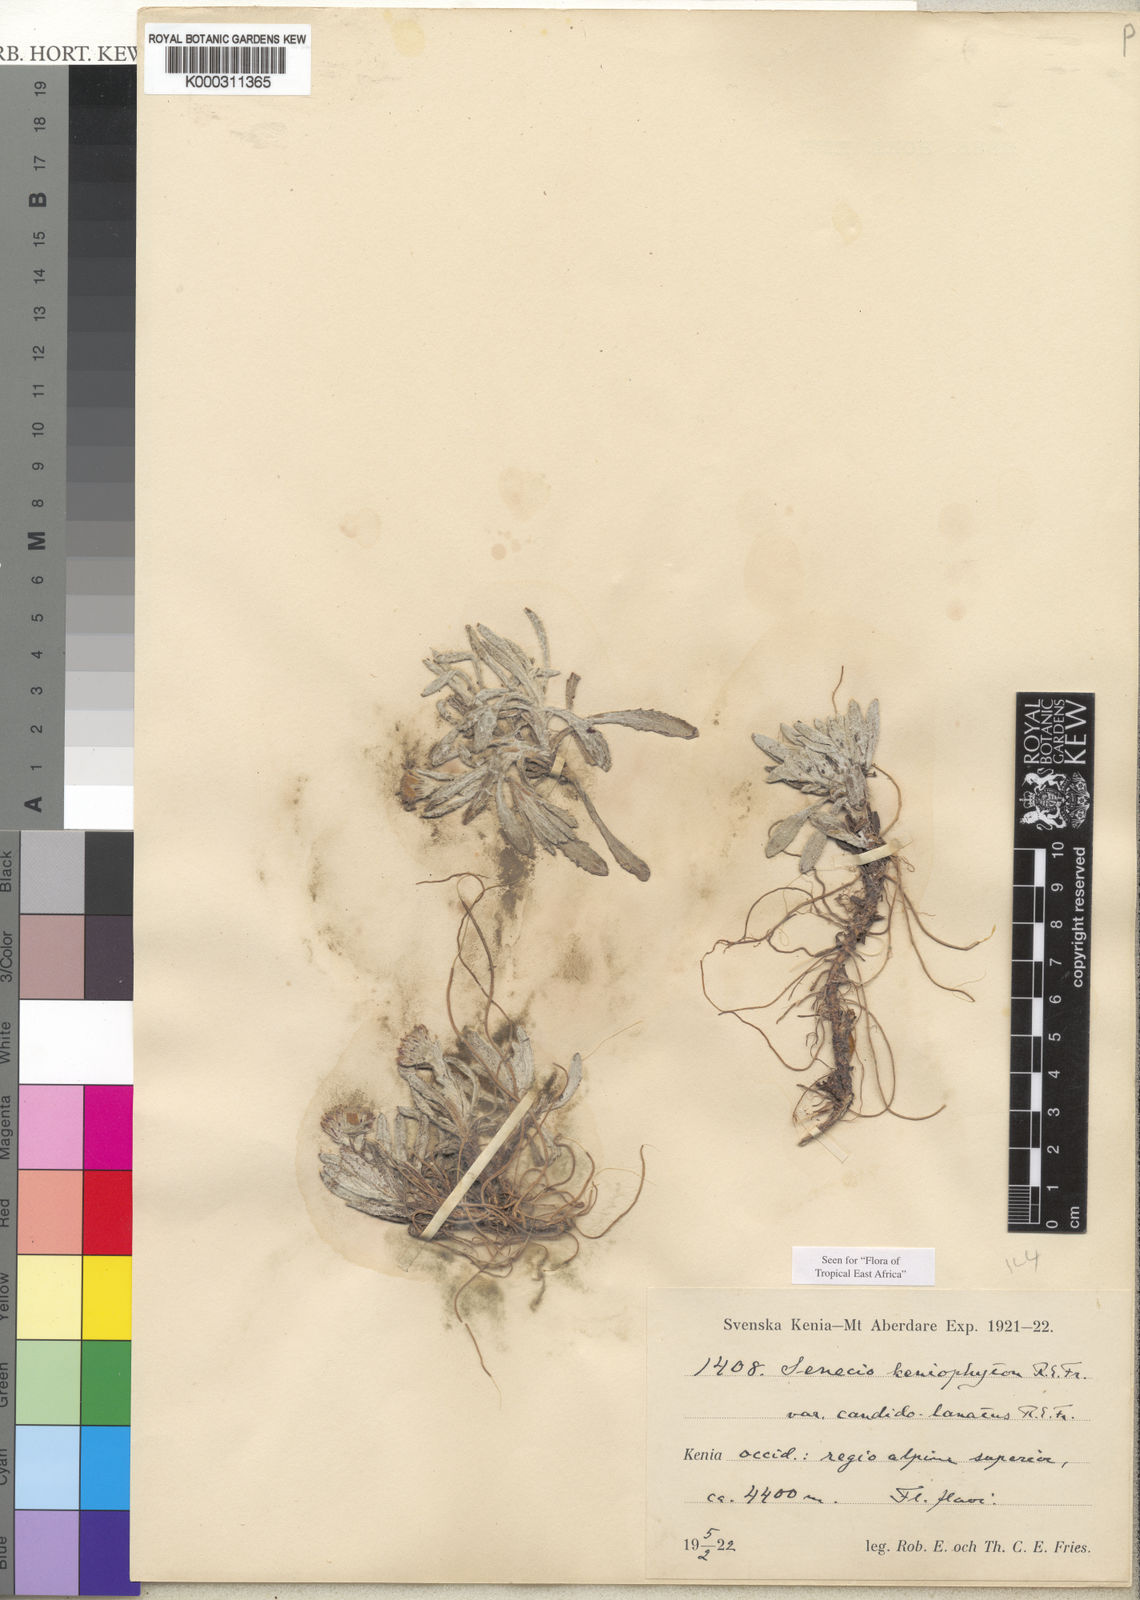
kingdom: Plantae
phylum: Tracheophyta
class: Magnoliopsida
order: Asterales
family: Asteraceae
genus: Senecio
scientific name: Senecio keniophytum
